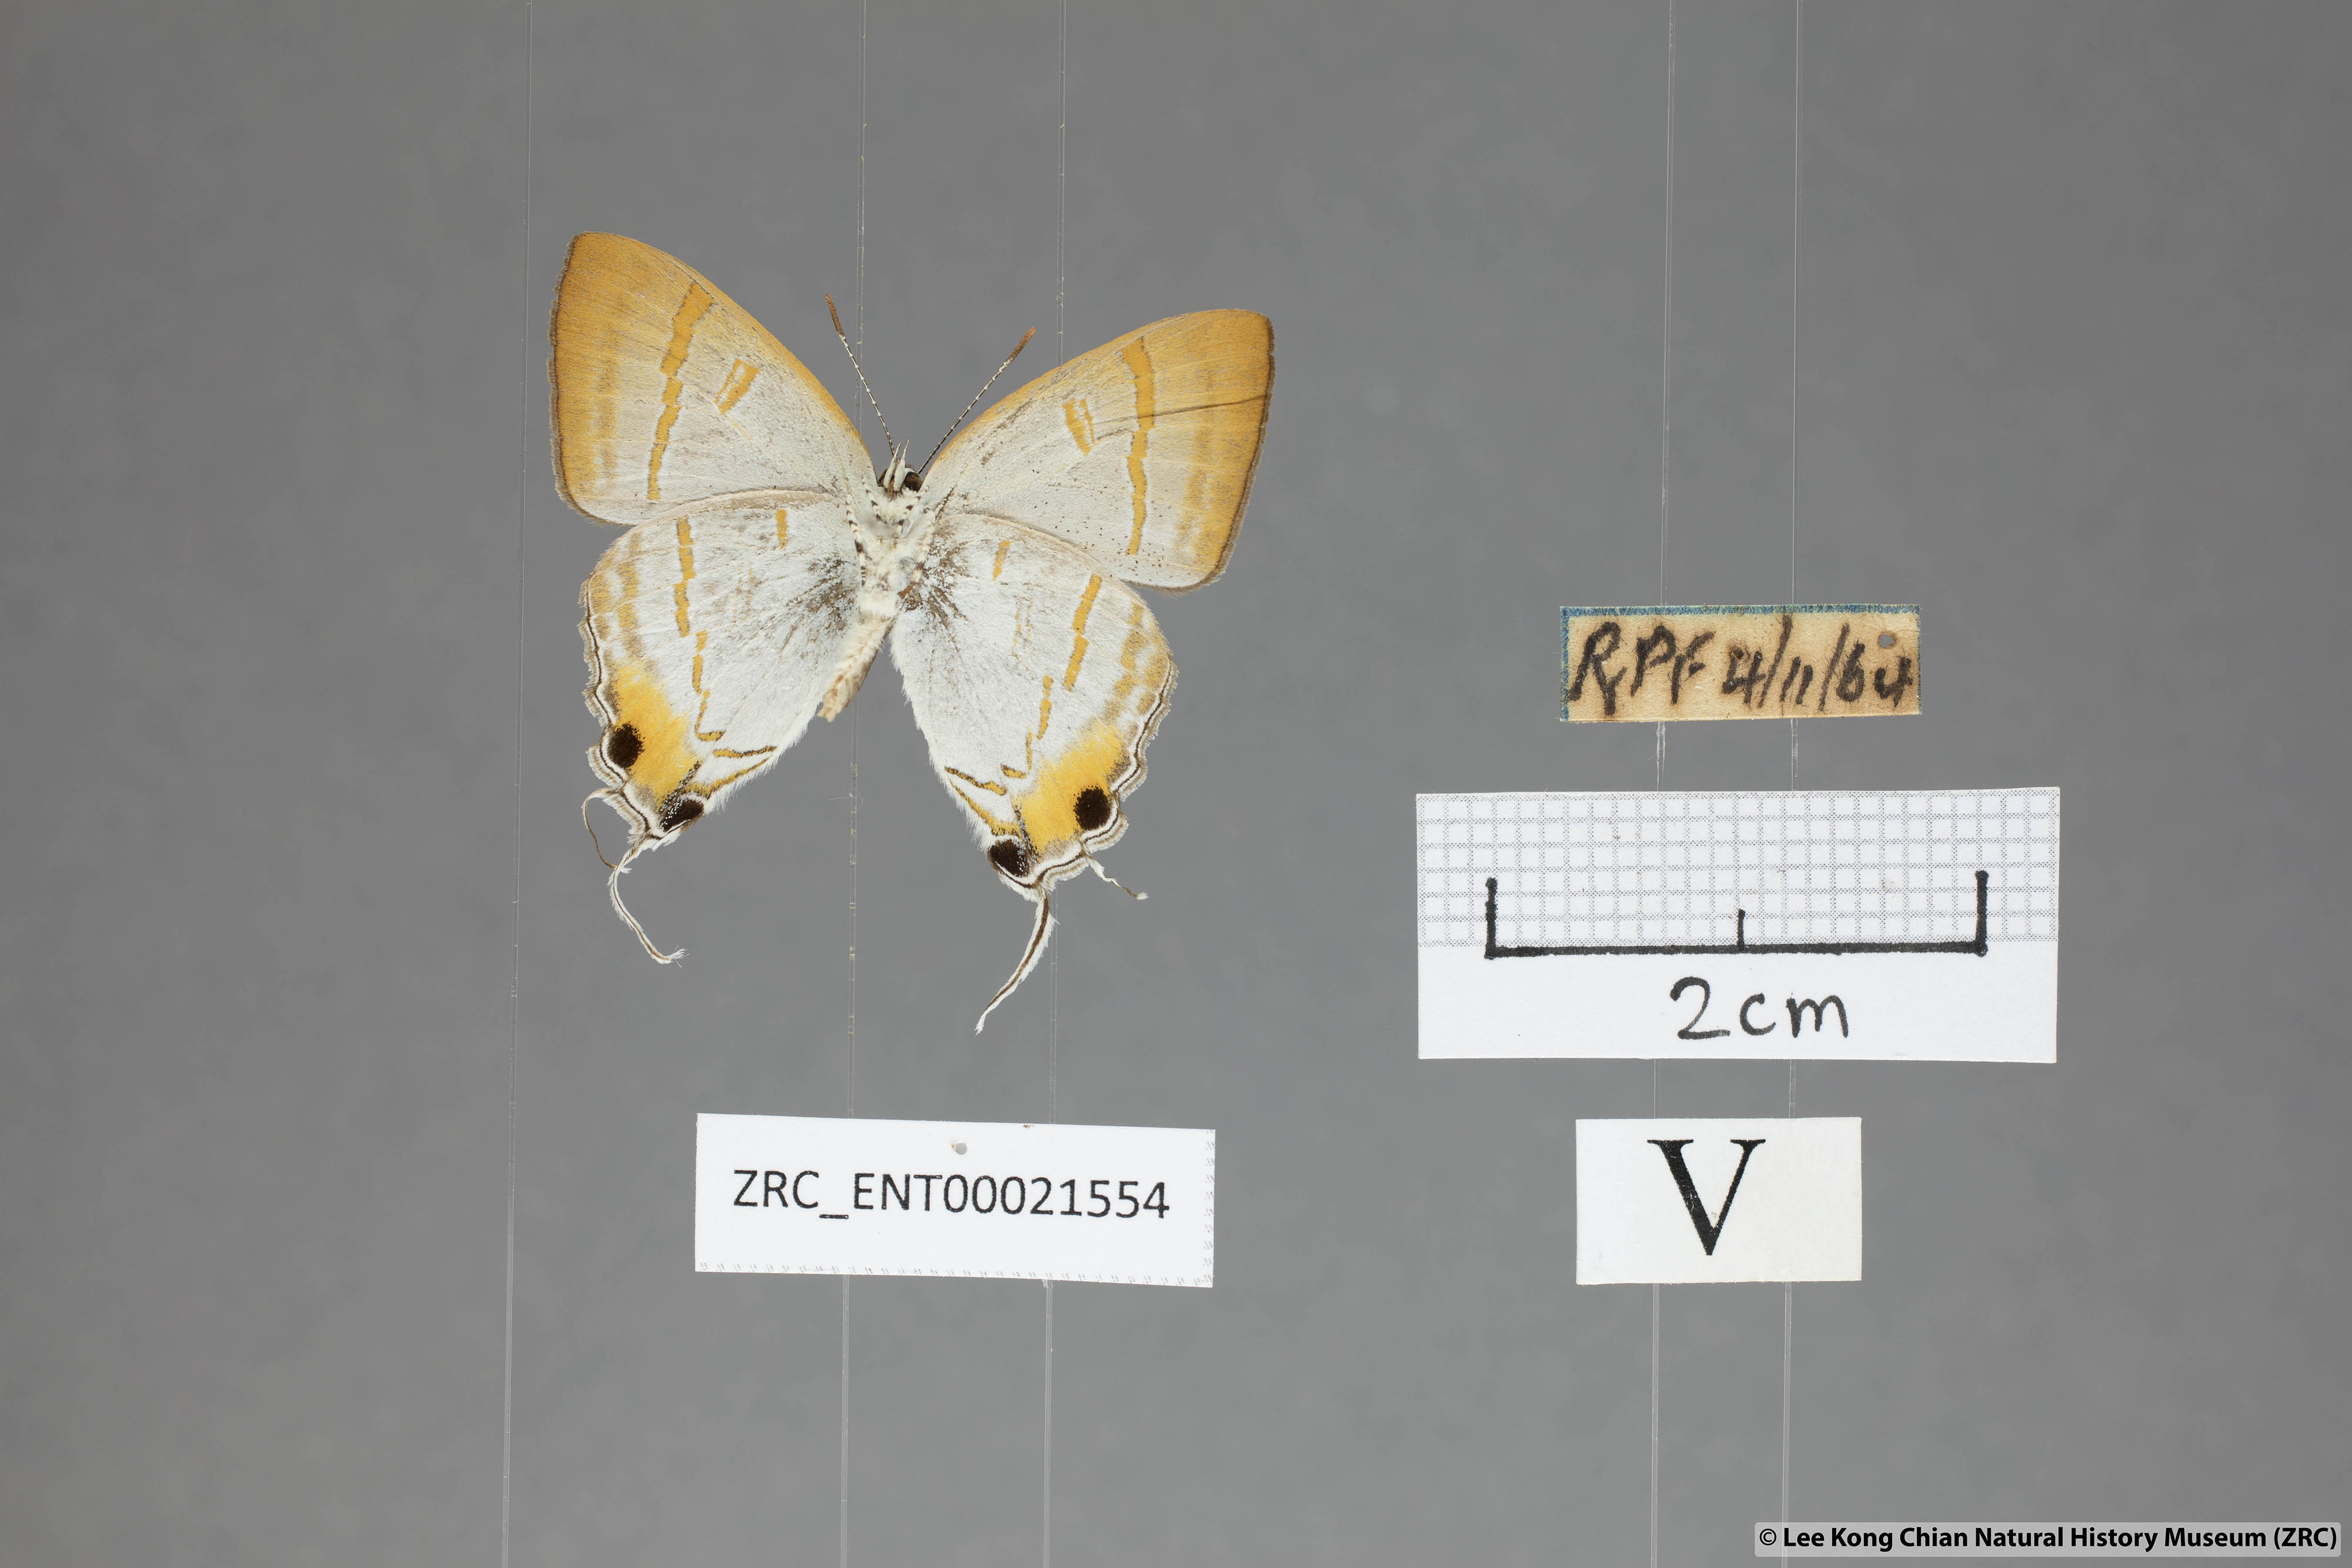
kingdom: Animalia
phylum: Arthropoda
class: Insecta
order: Lepidoptera
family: Lycaenidae
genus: Hypolycaena
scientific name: Hypolycaena thecloides
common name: Dark tit
